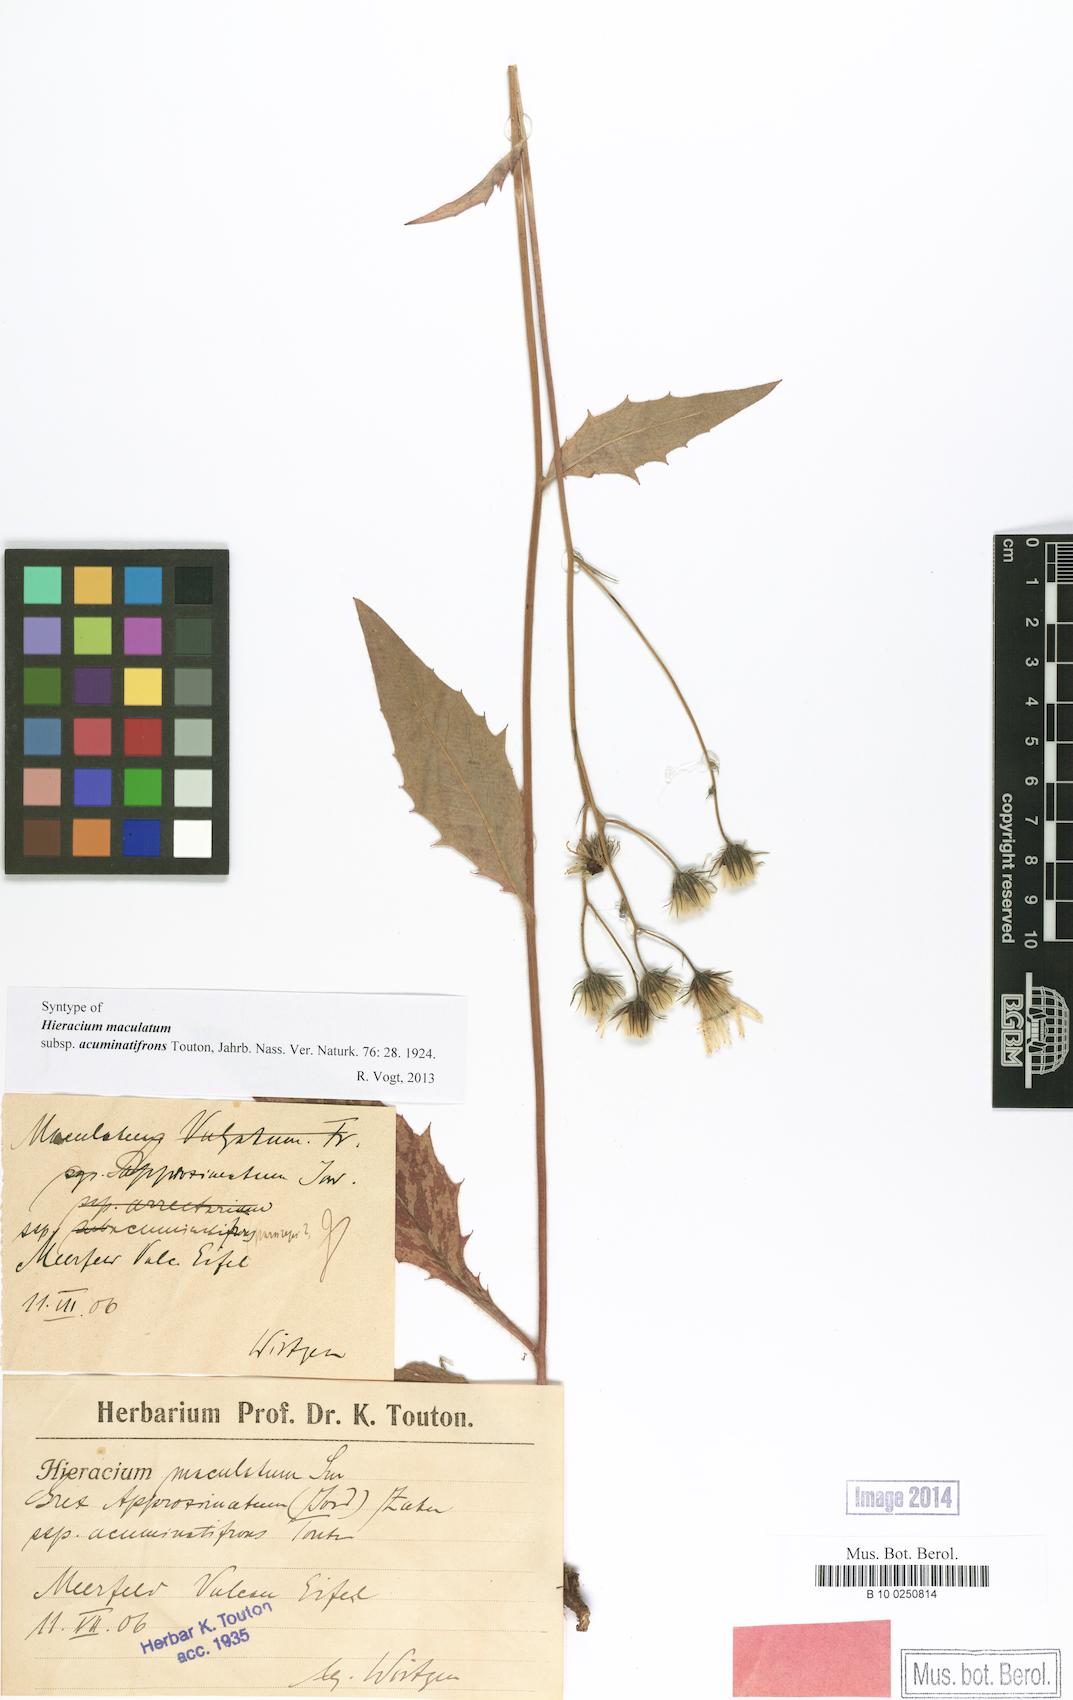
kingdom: Plantae
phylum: Tracheophyta
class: Magnoliopsida
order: Asterales
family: Asteraceae
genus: Hieracium
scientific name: Hieracium maculatum
